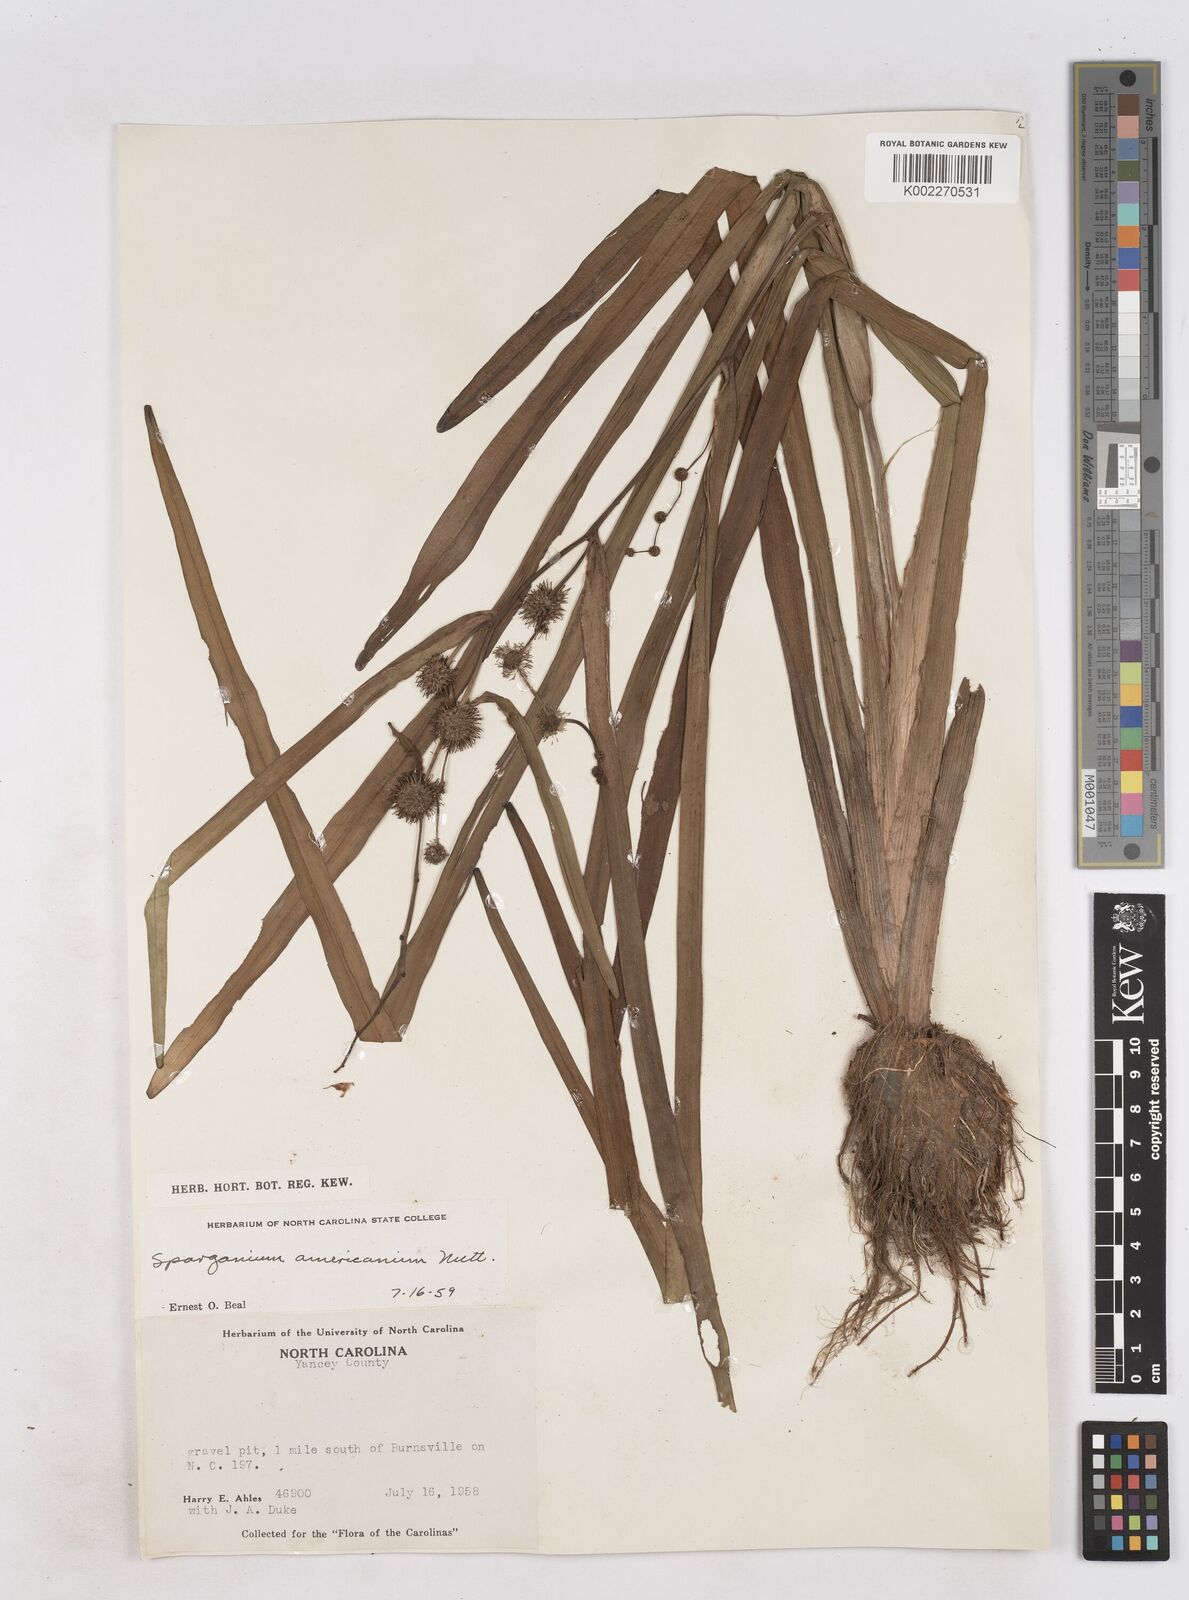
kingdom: Plantae
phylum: Tracheophyta
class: Liliopsida
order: Poales
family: Typhaceae
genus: Sparganium
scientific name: Sparganium americanum
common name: American burreed
